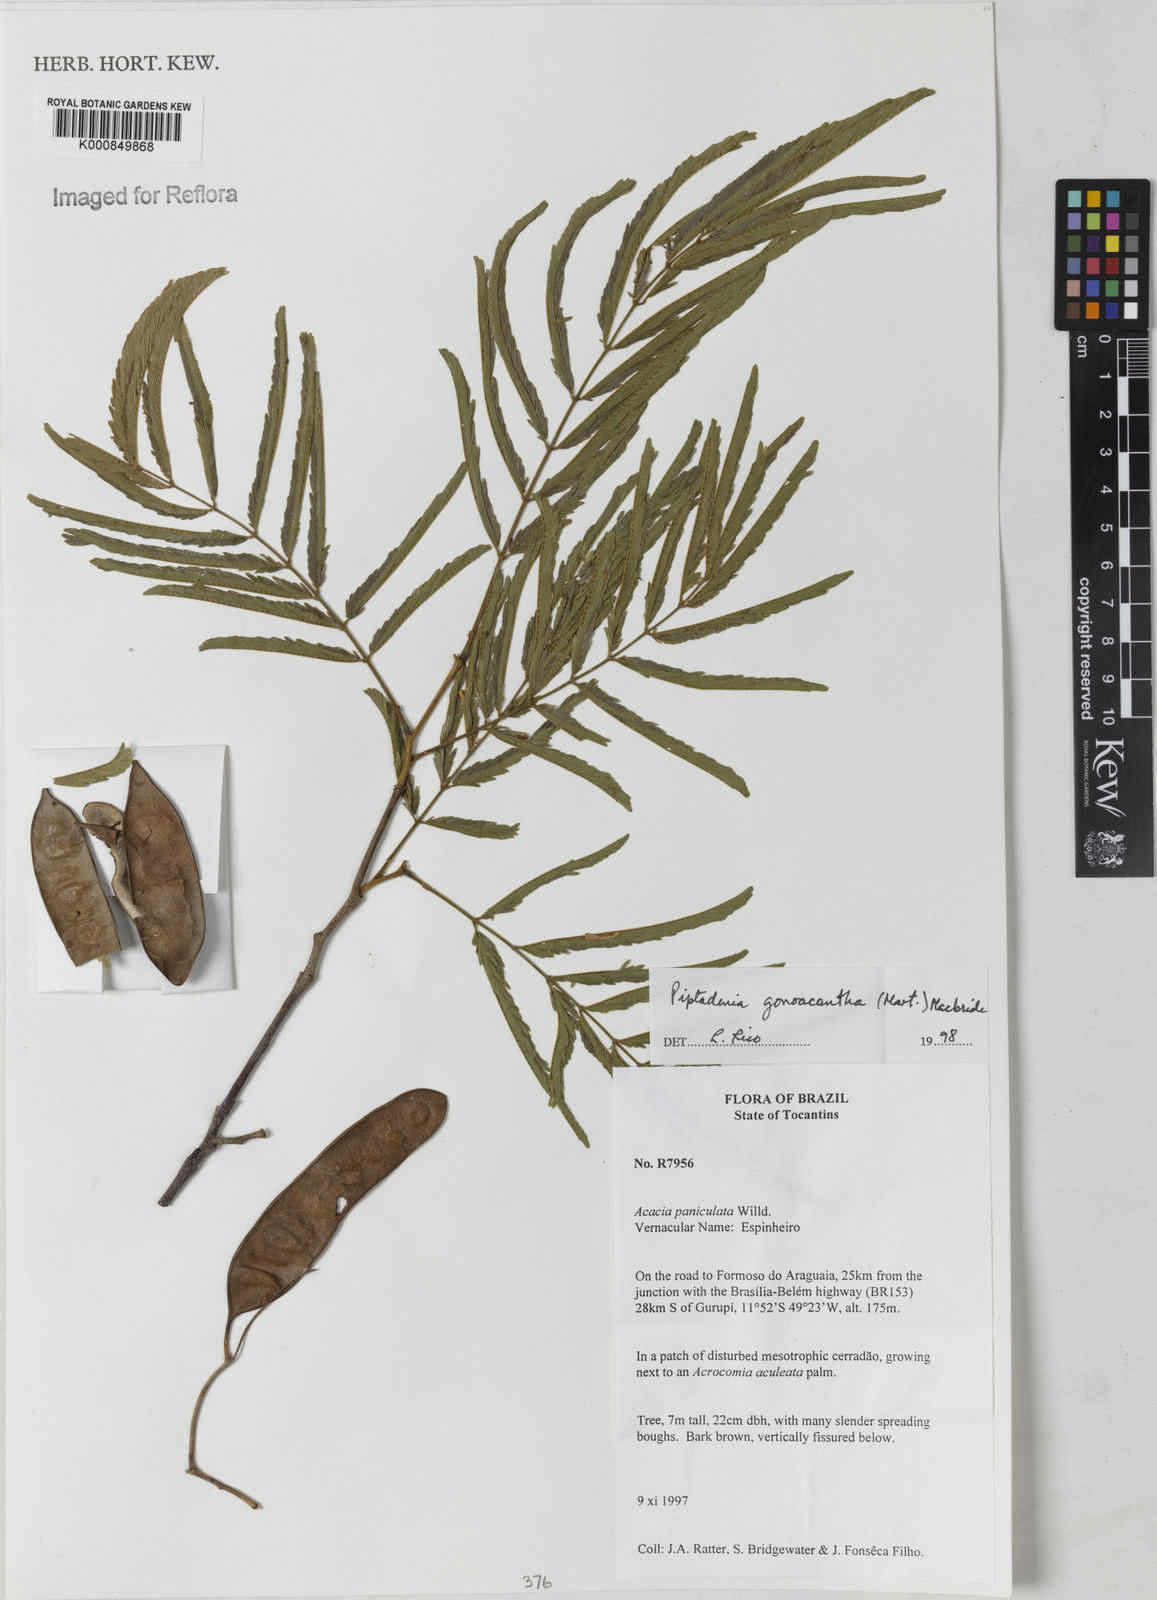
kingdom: Plantae
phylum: Tracheophyta
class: Magnoliopsida
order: Fabales
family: Fabaceae
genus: Piptadenia
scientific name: Piptadenia gonoacantha
